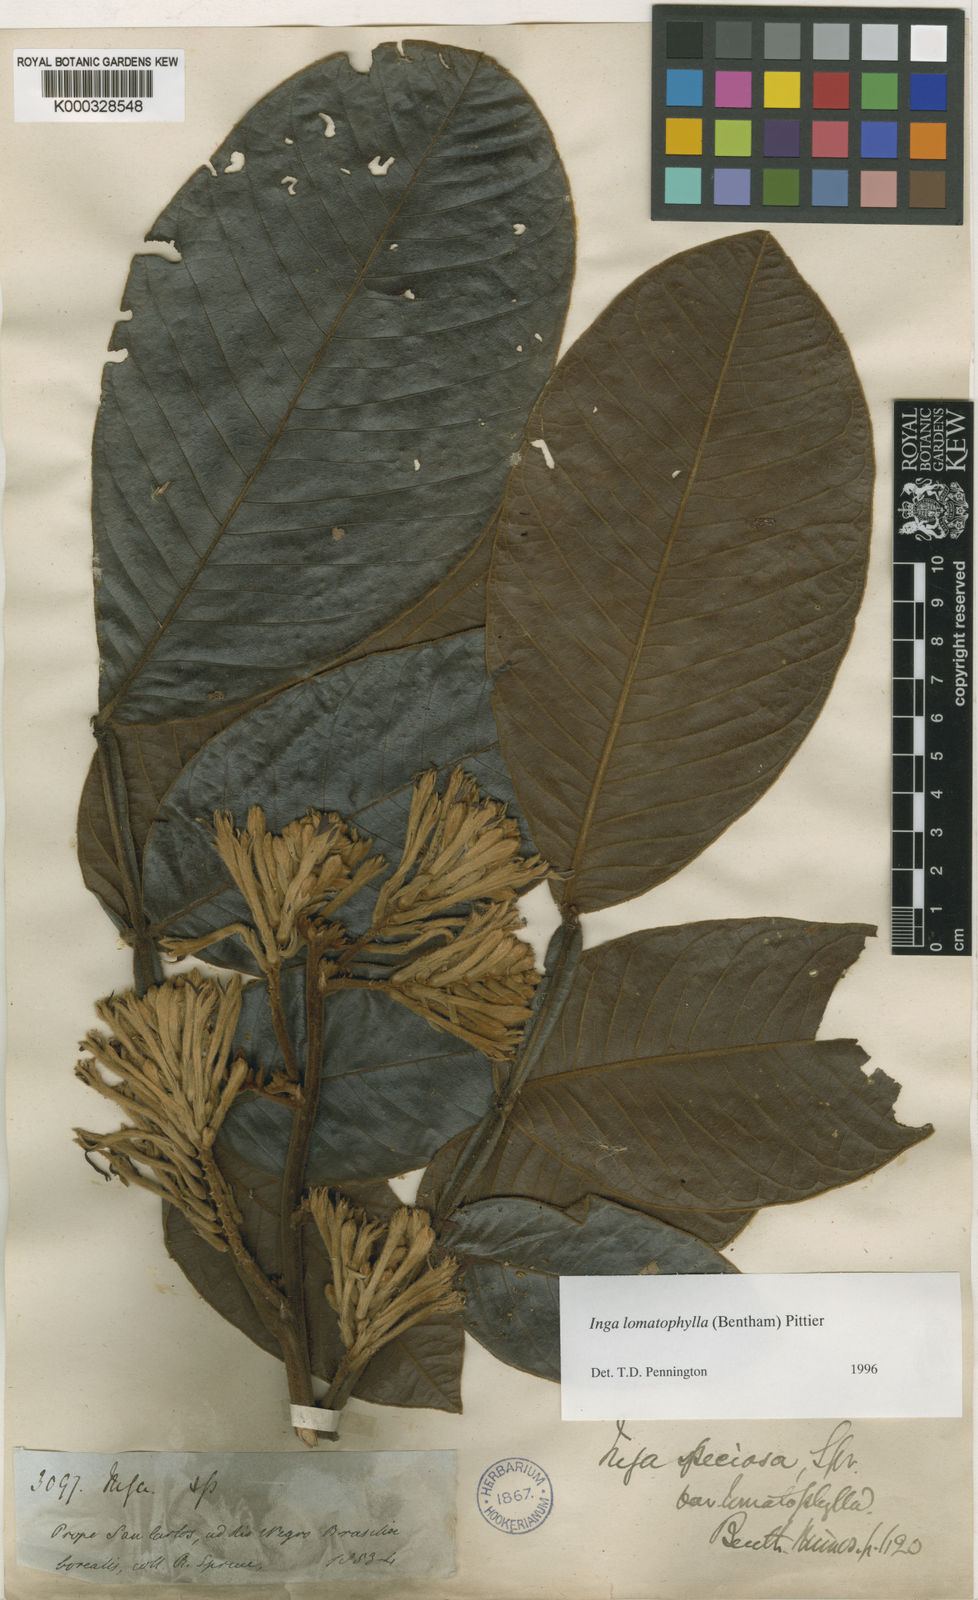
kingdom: Plantae
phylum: Tracheophyta
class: Magnoliopsida
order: Fabales
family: Fabaceae
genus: Inga
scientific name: Inga lomatophylla
